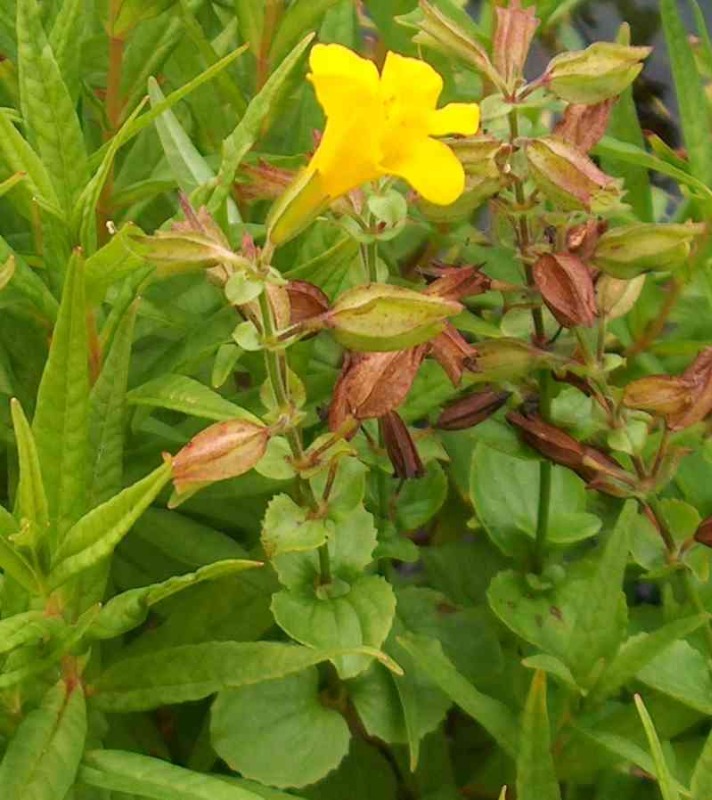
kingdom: Plantae
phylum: Tracheophyta
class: Magnoliopsida
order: Lamiales
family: Phrymaceae
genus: Erythranthe
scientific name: Erythranthe guttata
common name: Abeblomst
